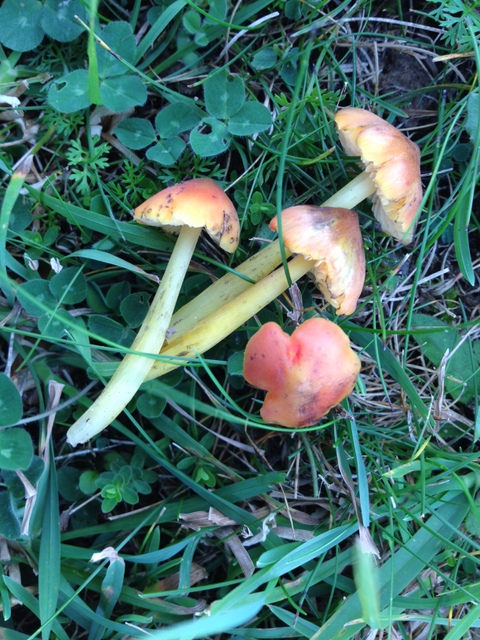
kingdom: Fungi
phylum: Basidiomycota
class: Agaricomycetes
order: Agaricales
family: Hygrophoraceae
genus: Hygrocybe
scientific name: Hygrocybe conica
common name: kegle-vokshat
